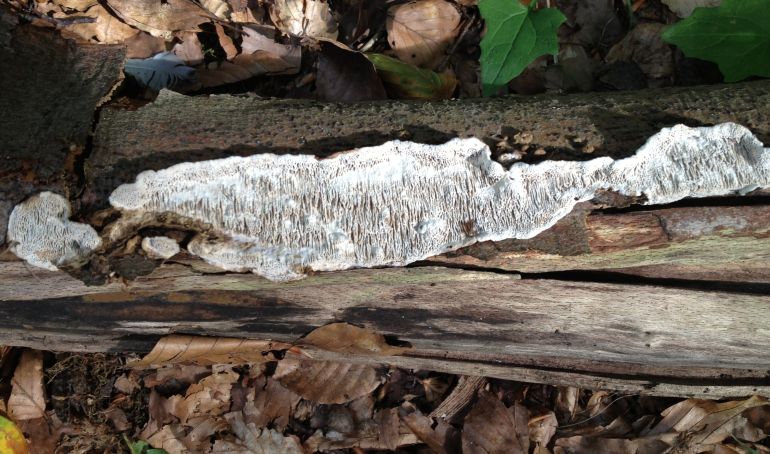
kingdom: Fungi
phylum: Basidiomycota
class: Agaricomycetes
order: Polyporales
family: Polyporaceae
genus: Podofomes
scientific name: Podofomes mollis
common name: blød begporesvamp
